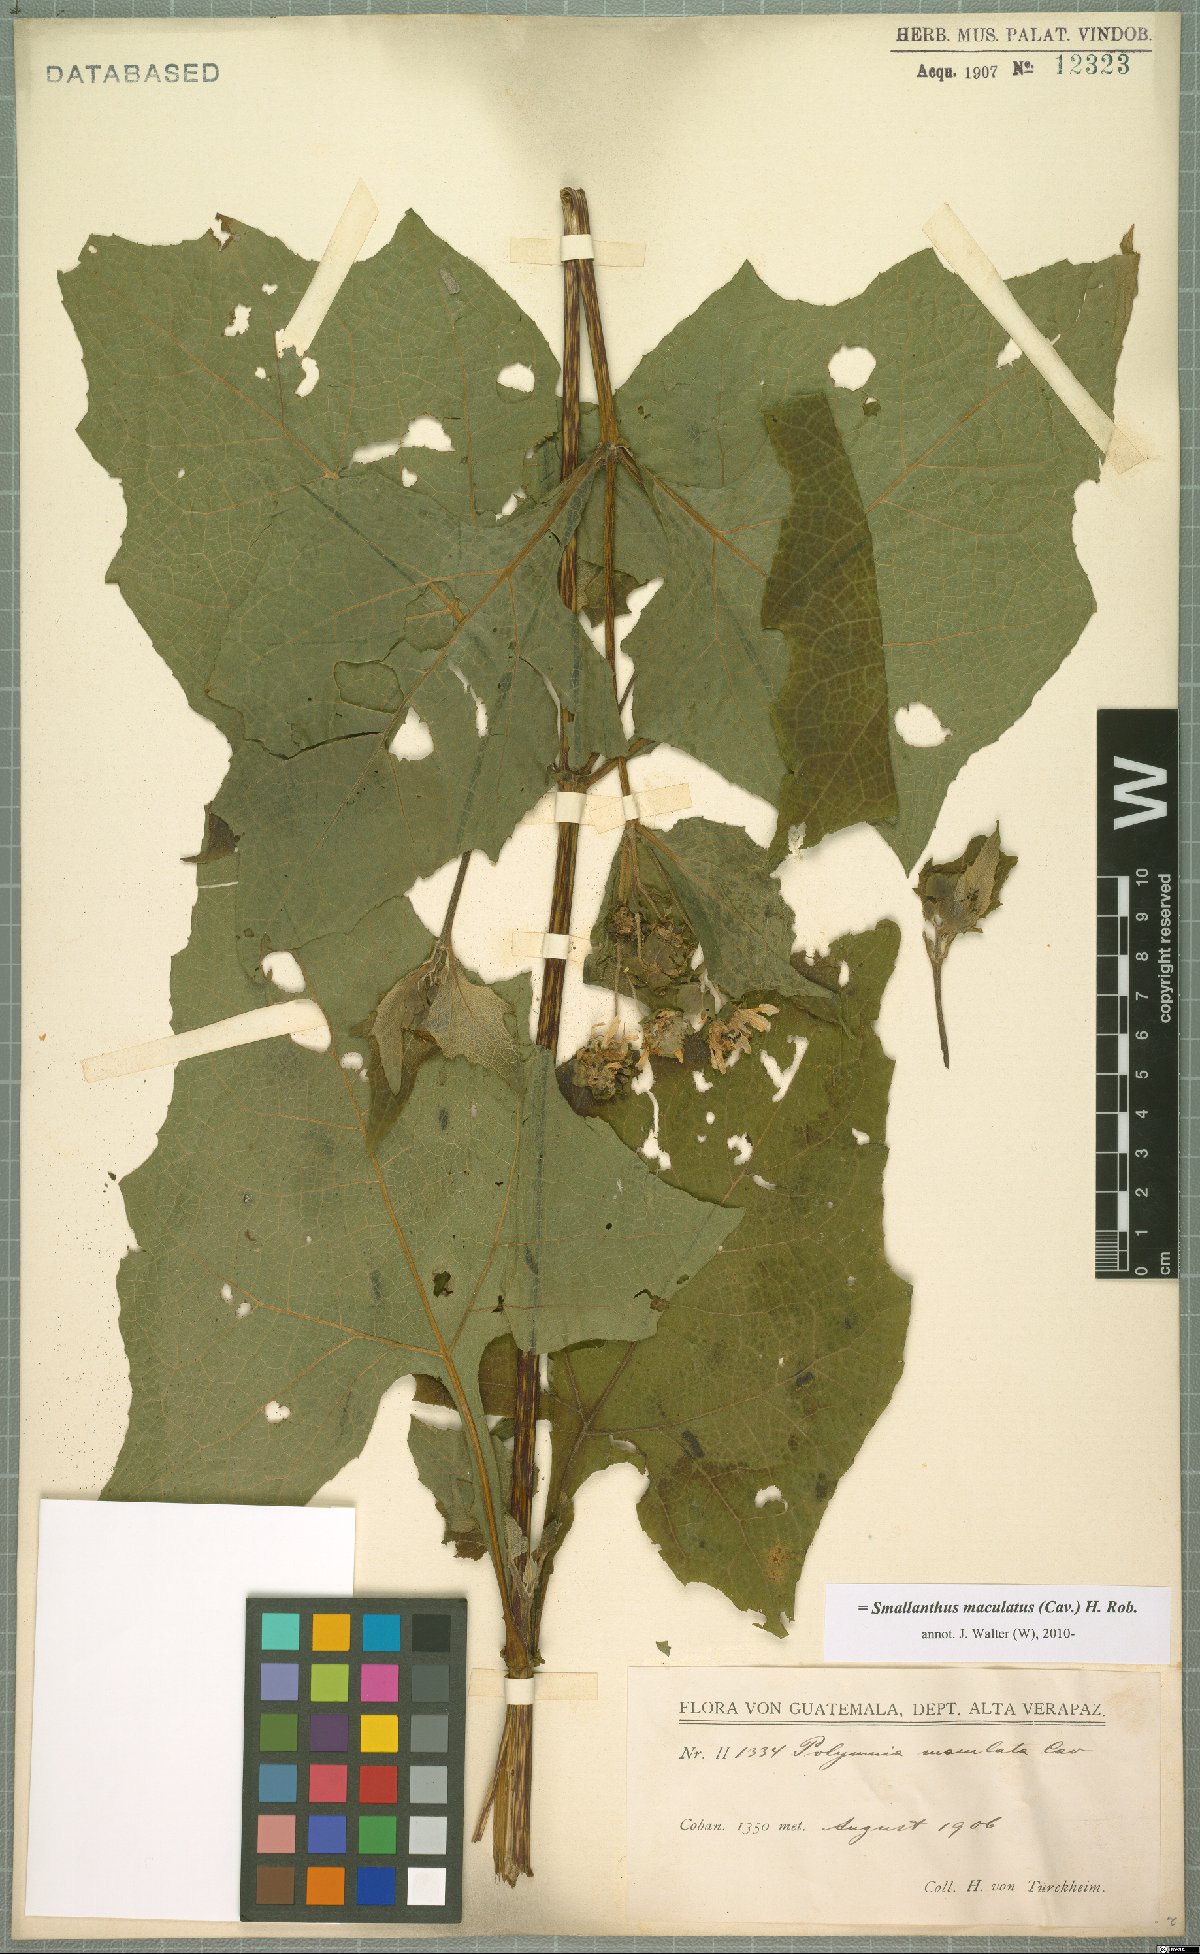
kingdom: Plantae
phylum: Tracheophyta
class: Magnoliopsida
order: Asterales
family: Asteraceae
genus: Smallanthus
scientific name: Smallanthus maculatus
